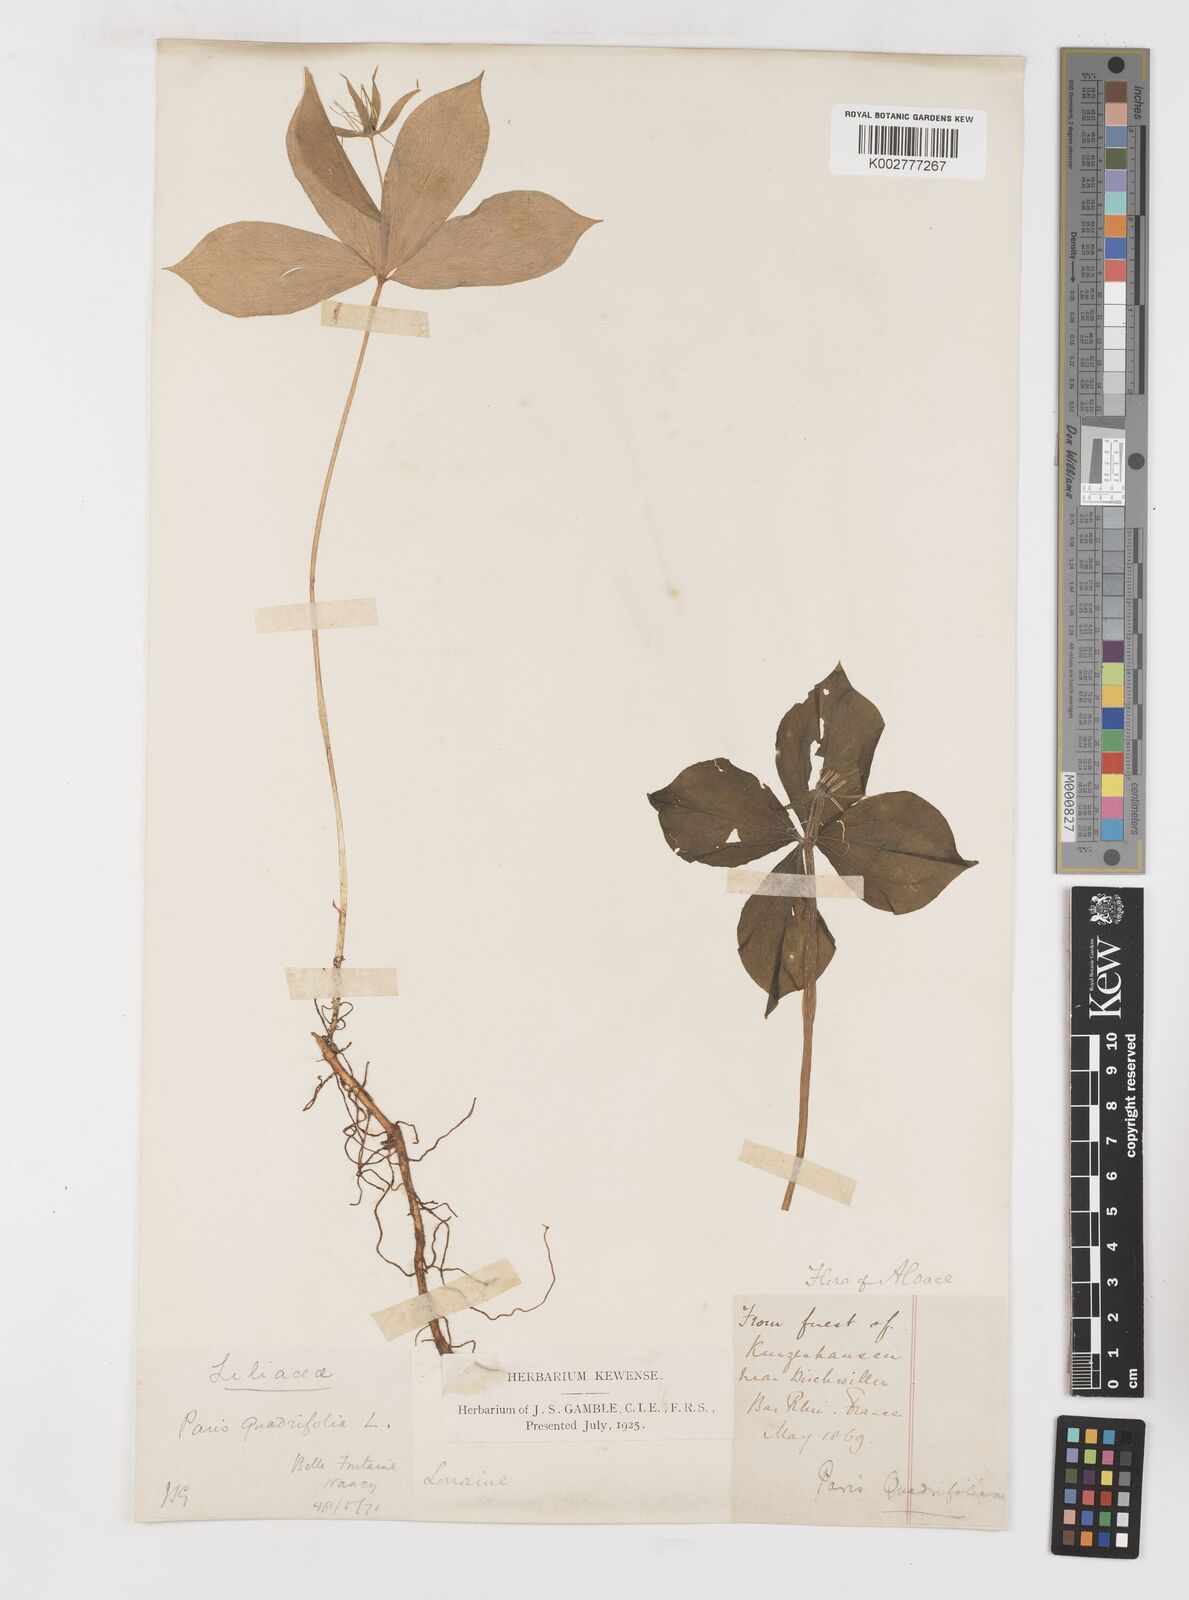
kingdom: Plantae
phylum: Tracheophyta
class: Liliopsida
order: Liliales
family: Melanthiaceae
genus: Paris
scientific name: Paris quadrifolia
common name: Herb-paris
